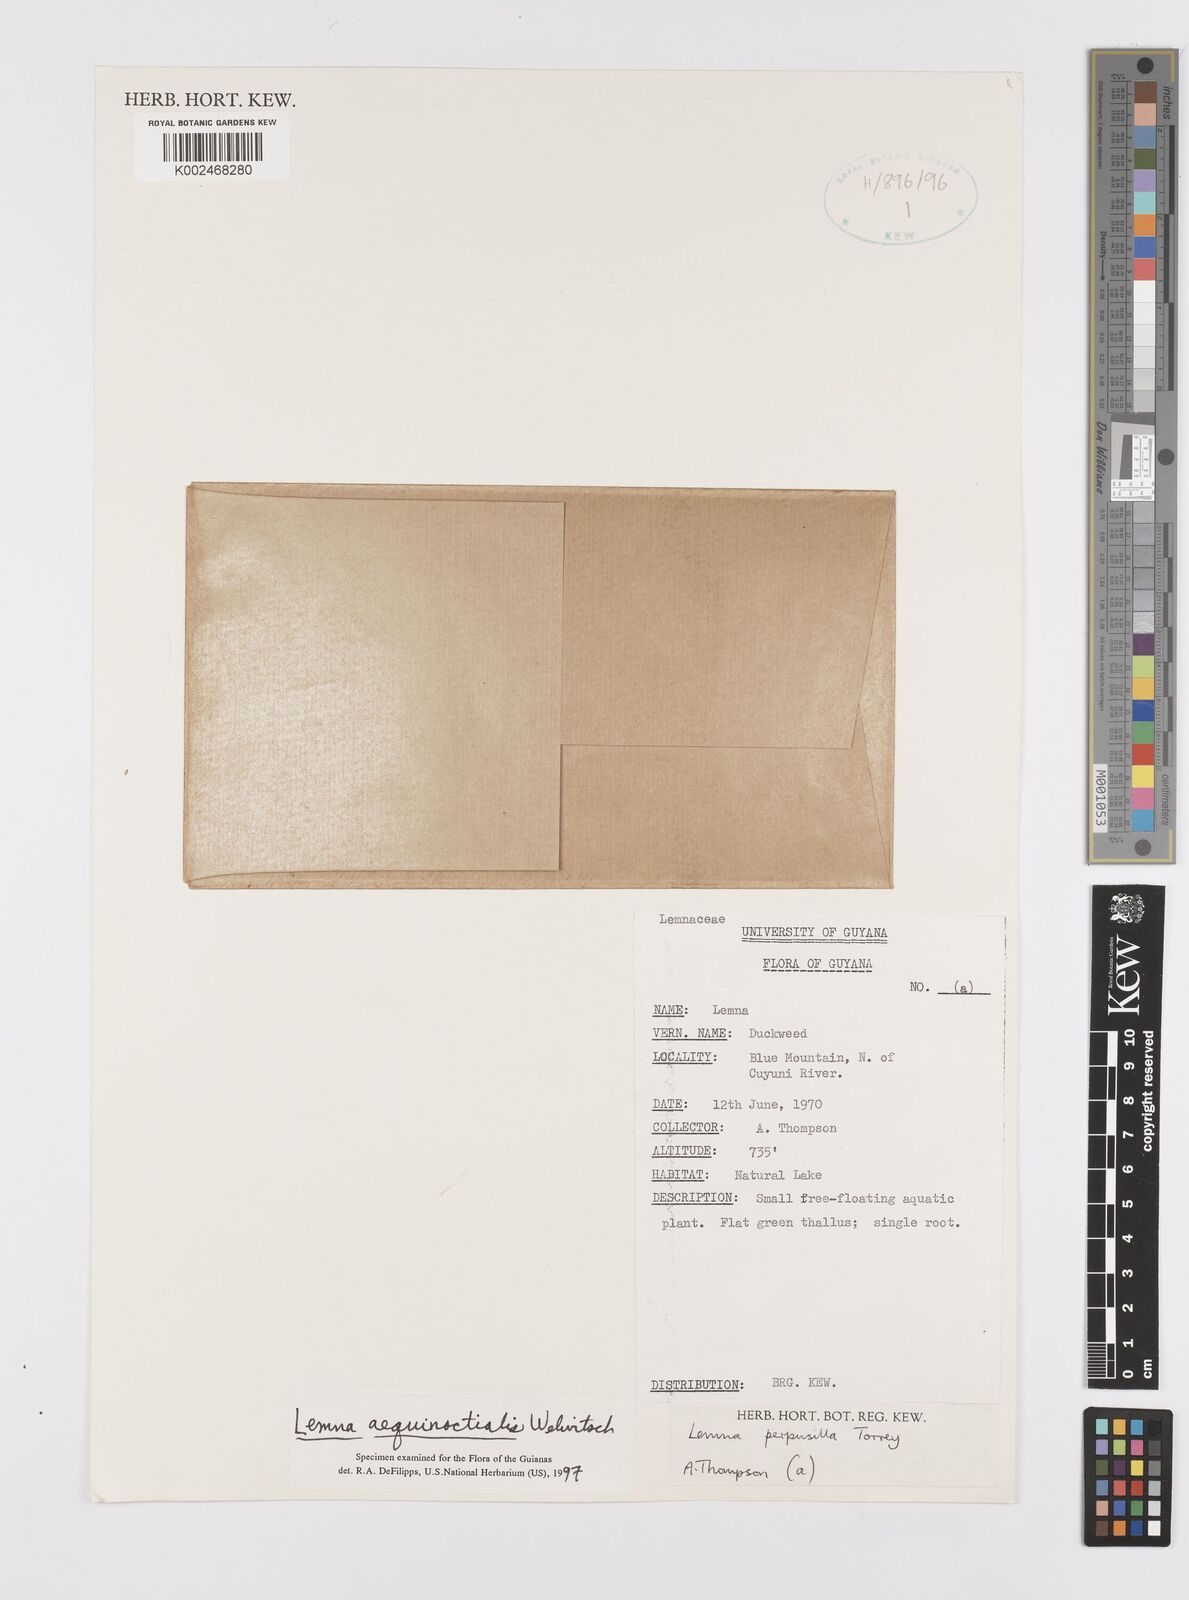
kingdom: Plantae
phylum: Tracheophyta
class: Liliopsida
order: Alismatales
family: Araceae
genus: Lemna
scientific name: Lemna aequinoctialis
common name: Duckweed
